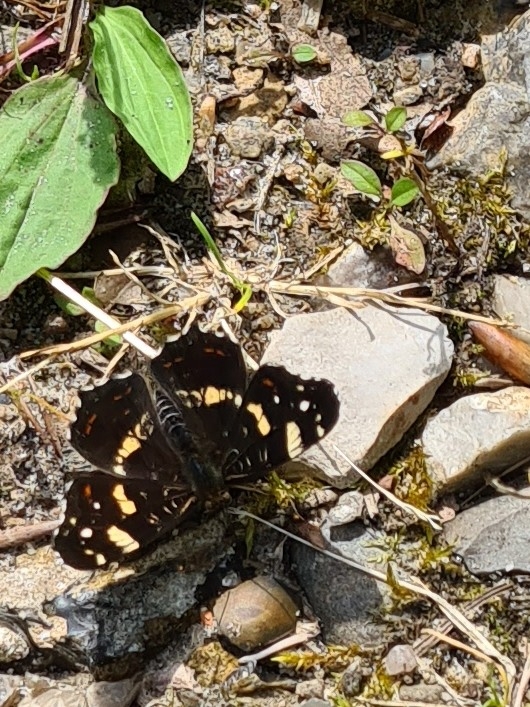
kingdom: Animalia
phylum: Arthropoda
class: Insecta
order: Lepidoptera
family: Nymphalidae
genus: Araschnia
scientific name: Araschnia levana
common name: Nældesommerfugl
